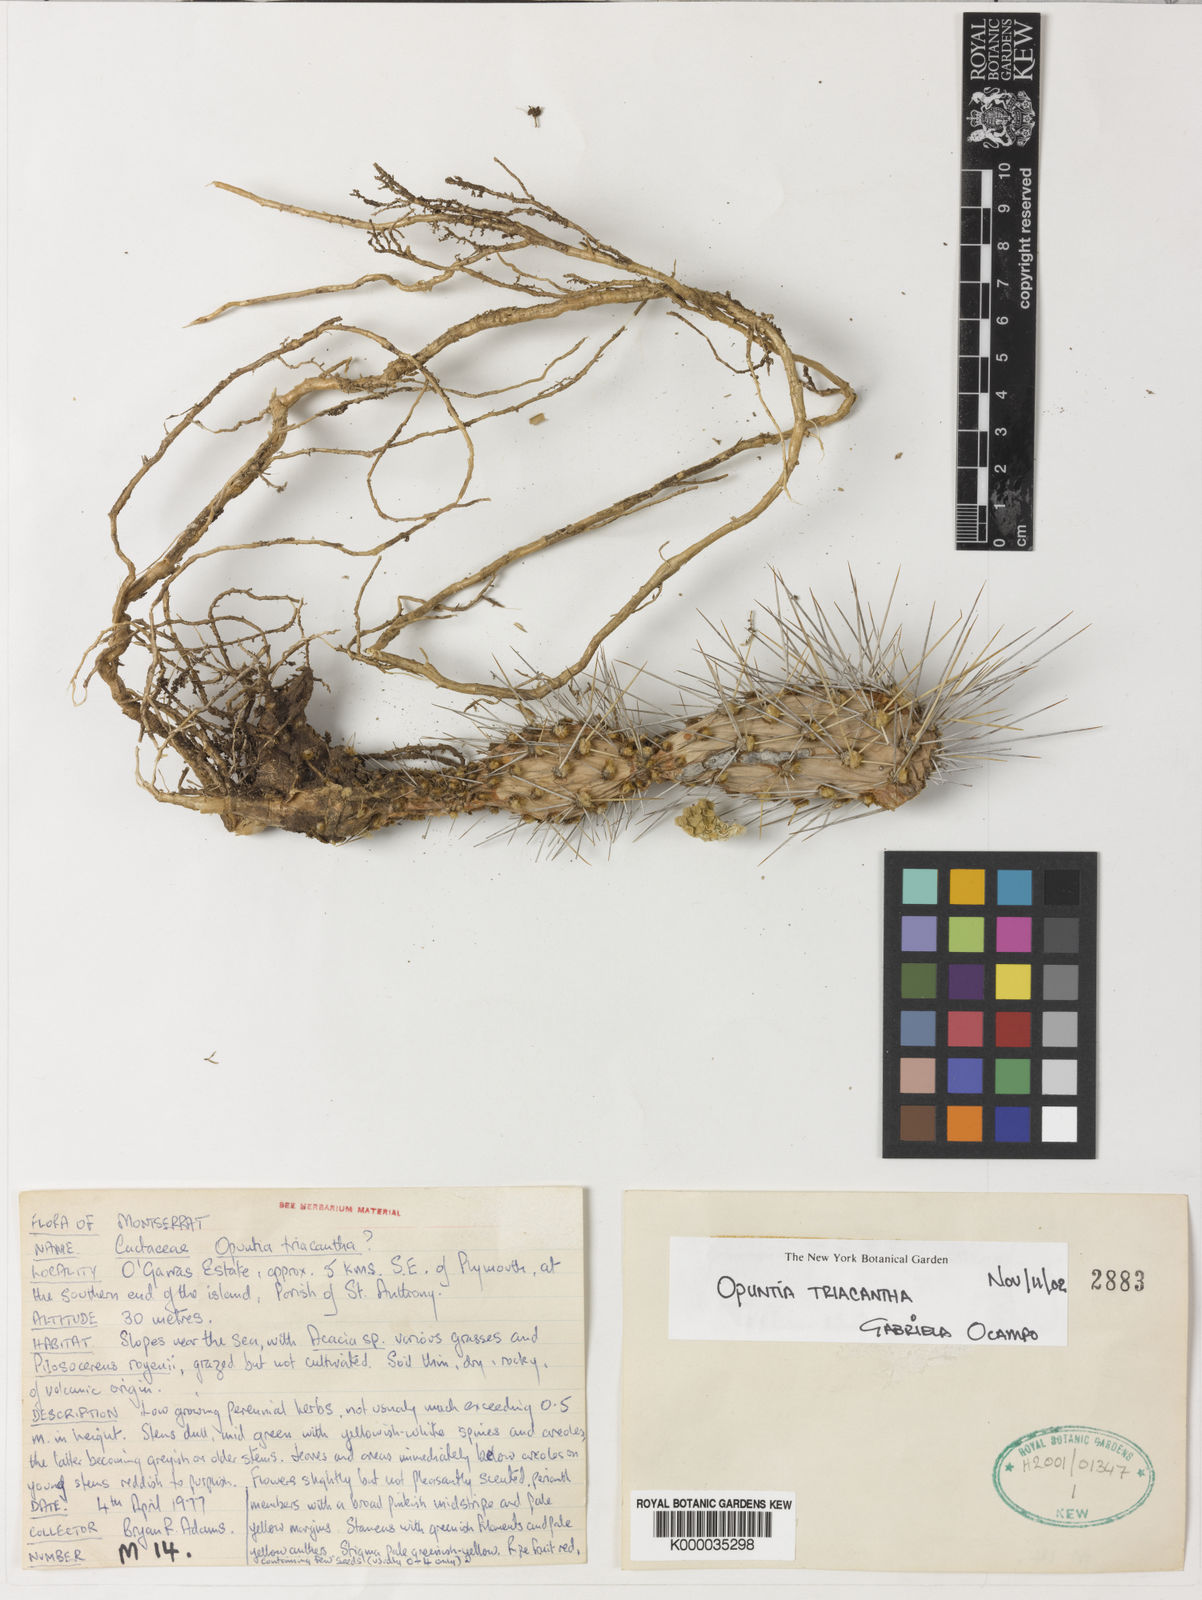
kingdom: Plantae
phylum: Tracheophyta
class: Magnoliopsida
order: Caryophyllales
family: Cactaceae
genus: Opuntia
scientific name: Opuntia
